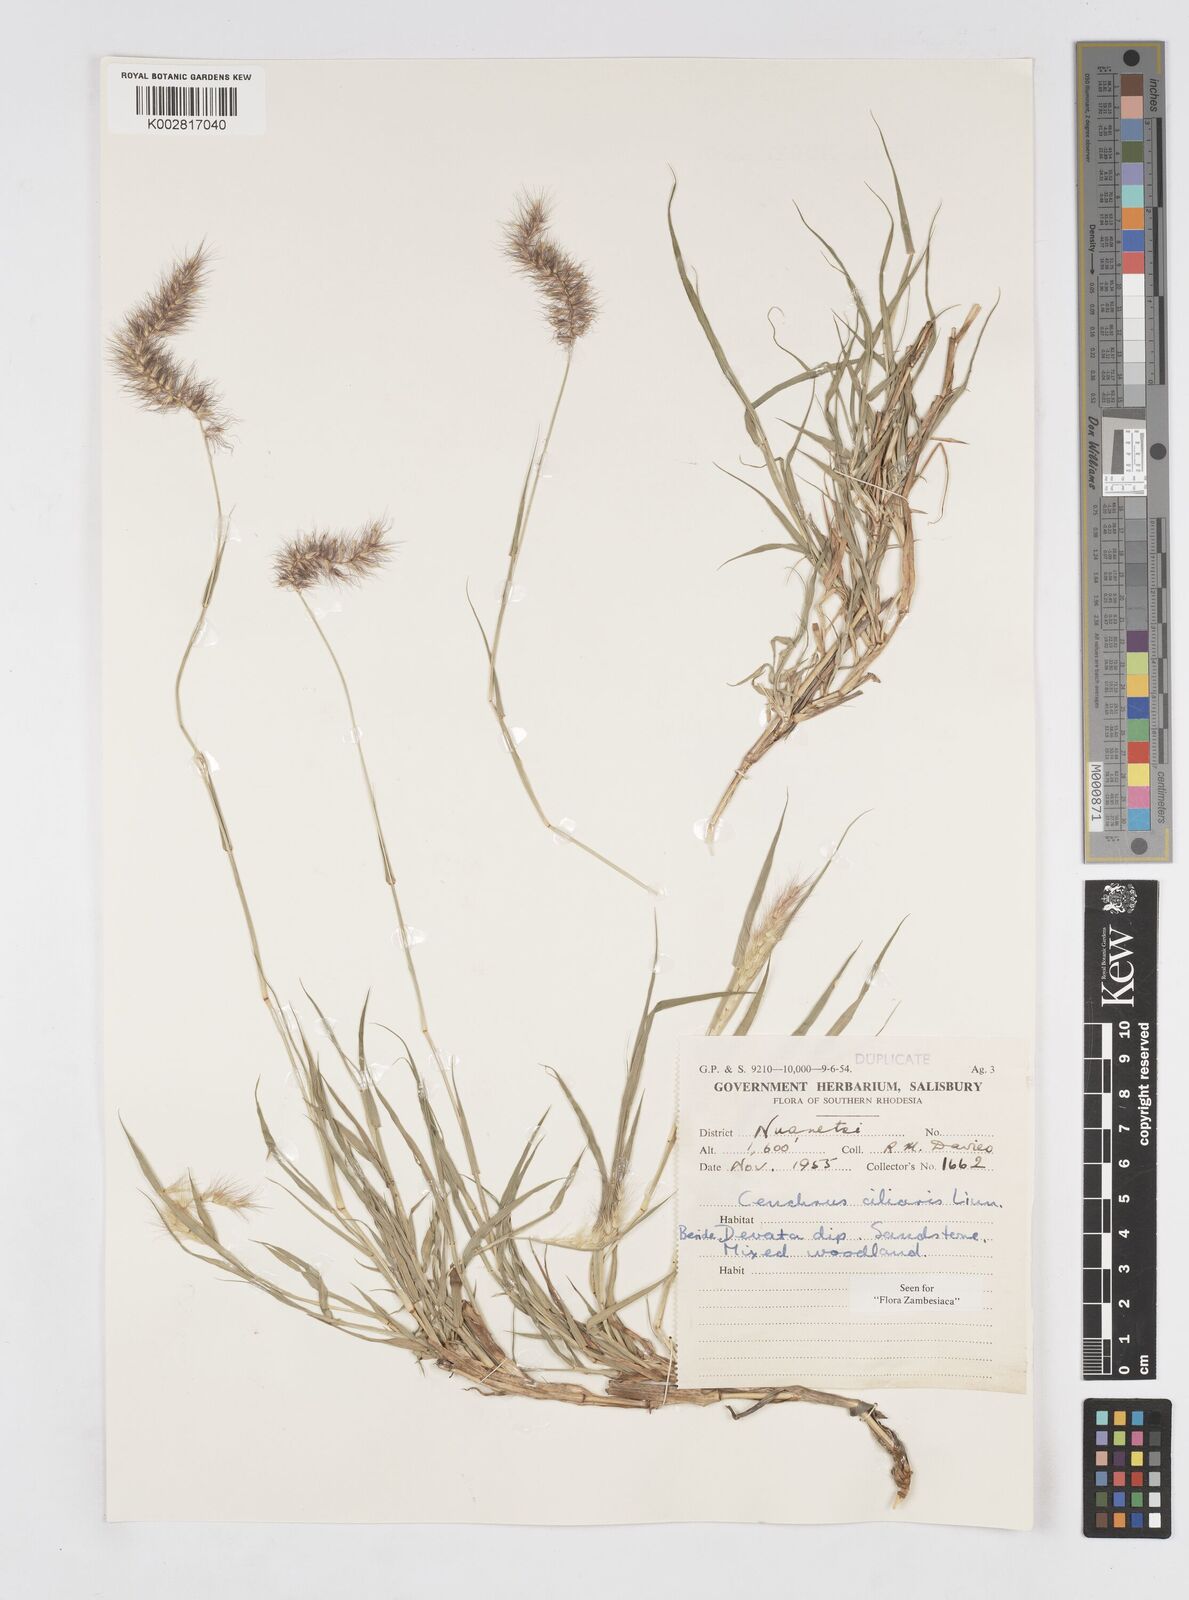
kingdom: Plantae
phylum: Tracheophyta
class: Liliopsida
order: Poales
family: Poaceae
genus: Cenchrus
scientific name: Cenchrus ciliaris
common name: Buffelgrass
